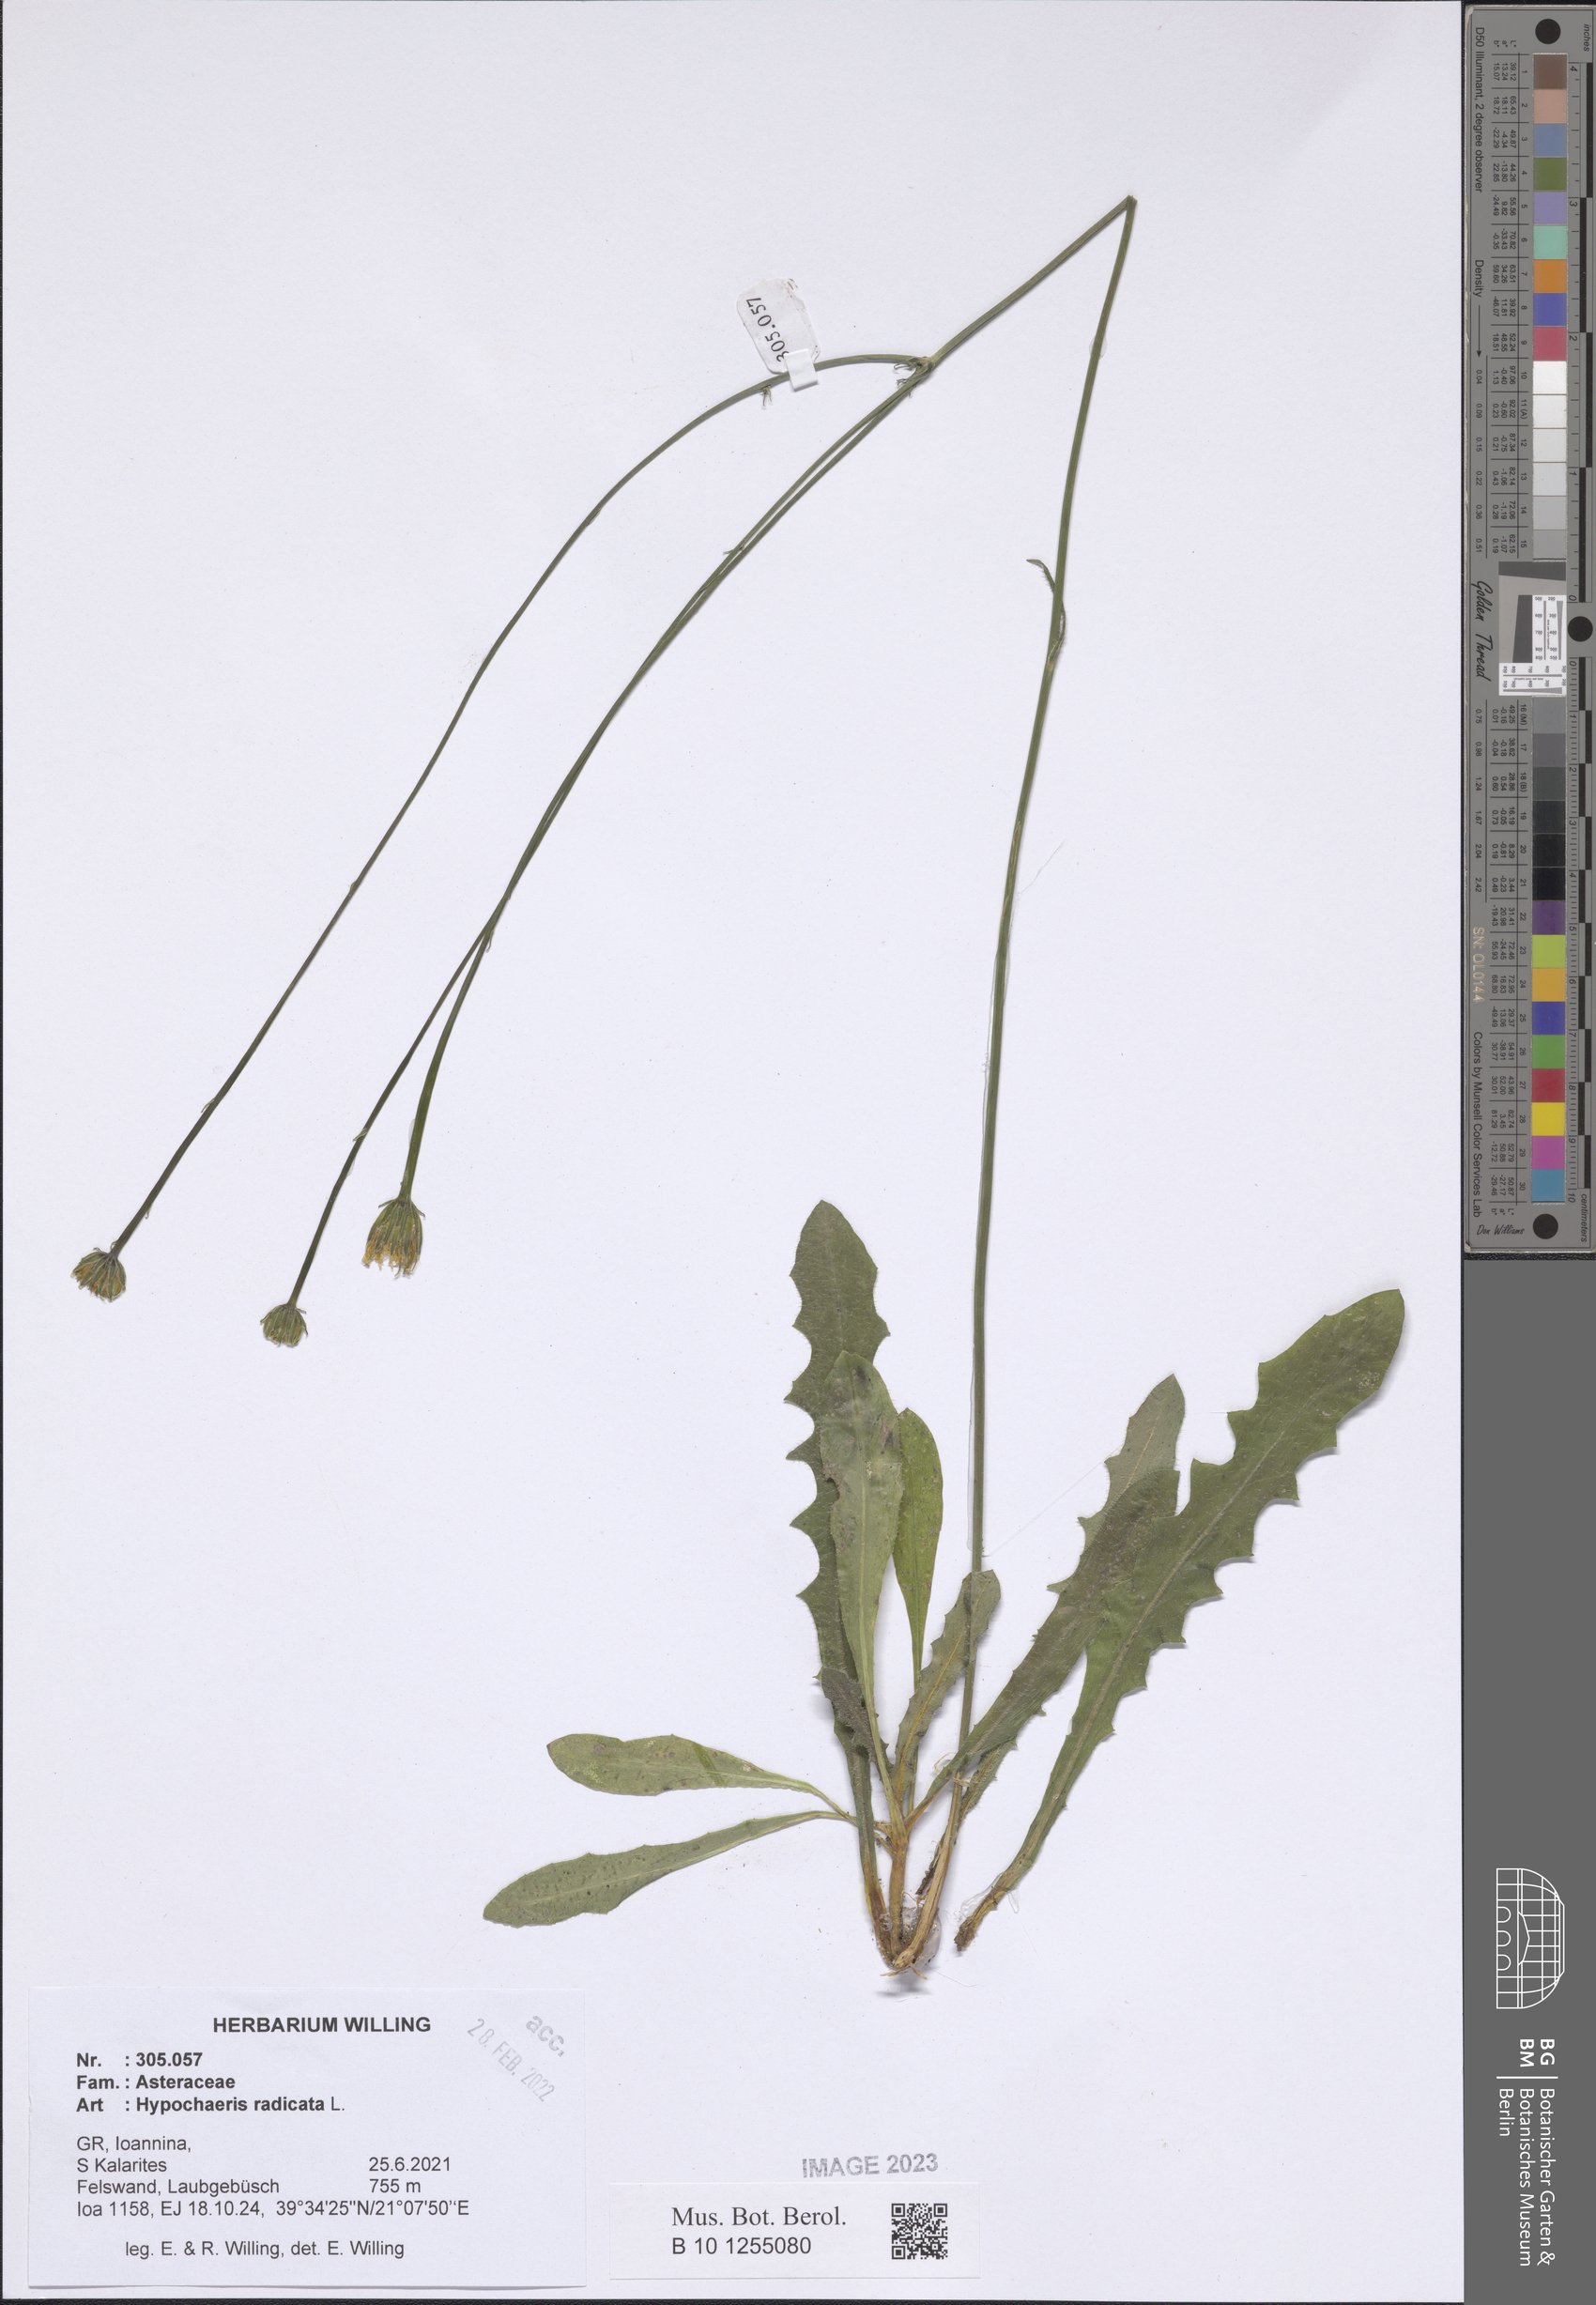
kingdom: Plantae
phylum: Tracheophyta
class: Magnoliopsida
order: Asterales
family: Asteraceae
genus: Hypochaeris
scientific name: Hypochaeris radicata
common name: Flatweed
